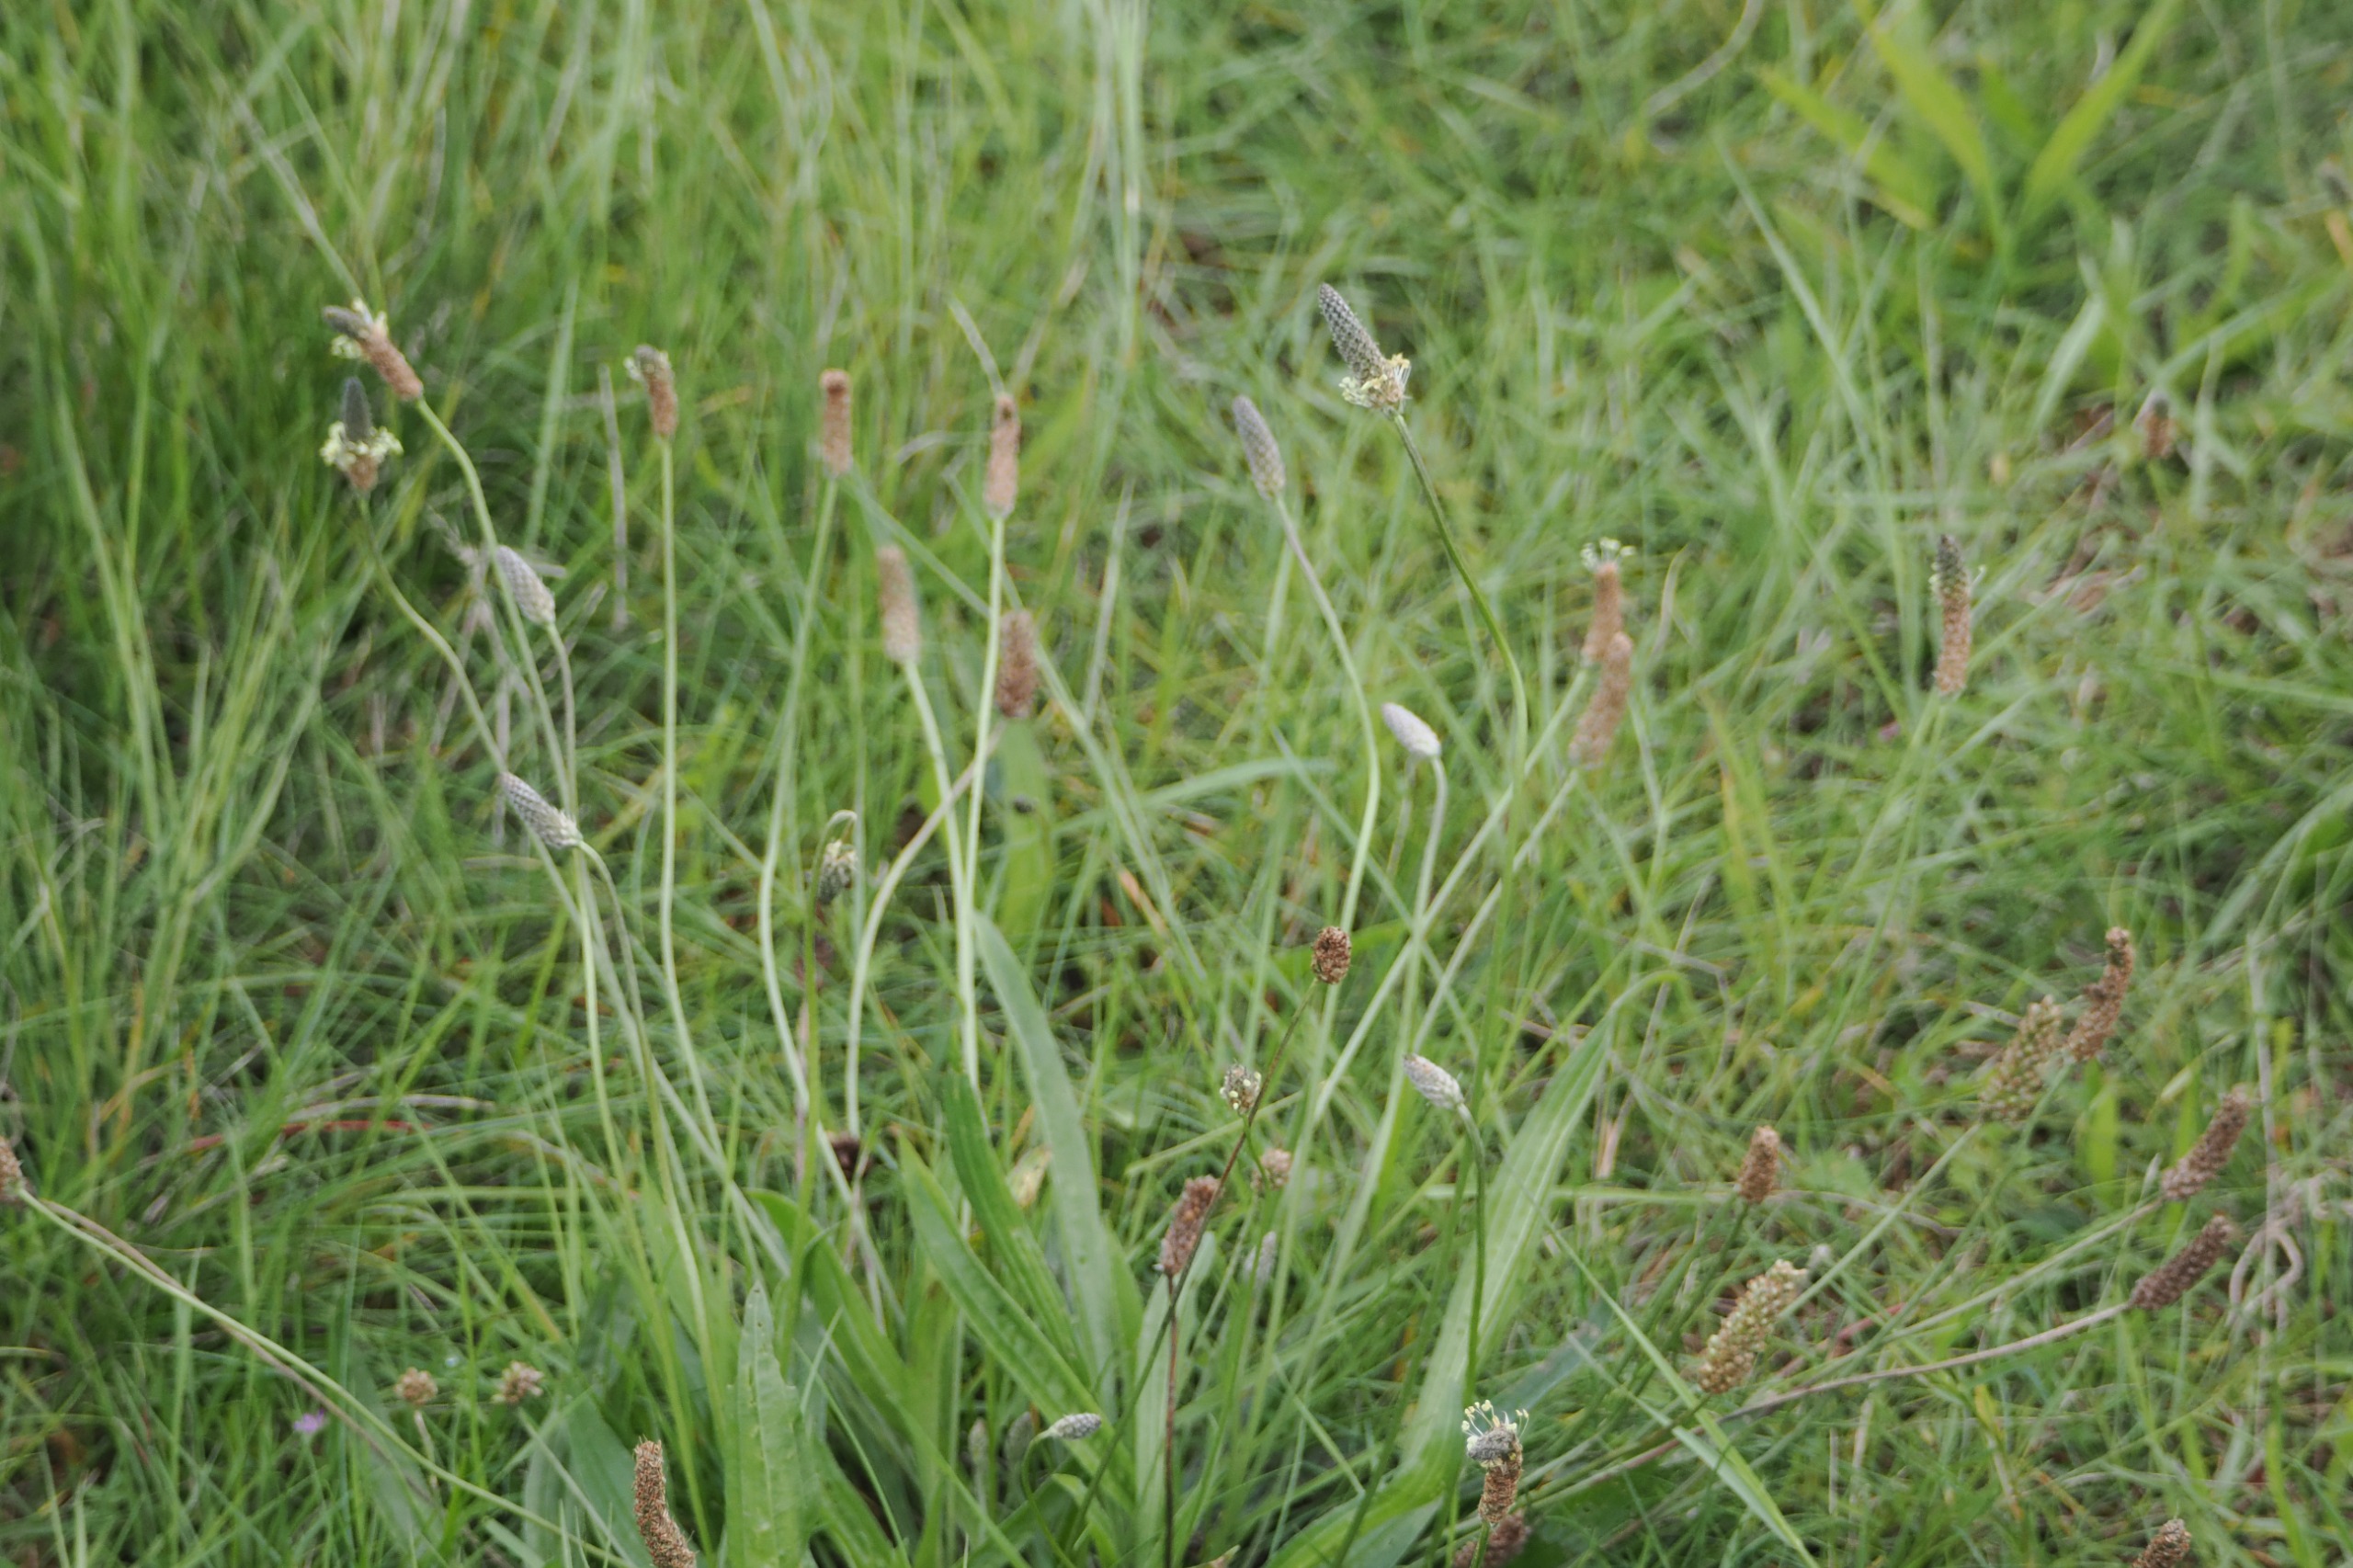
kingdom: Plantae
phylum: Tracheophyta
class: Magnoliopsida
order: Lamiales
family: Plantaginaceae
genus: Plantago
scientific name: Plantago lanceolata
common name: Lancet-vejbred
